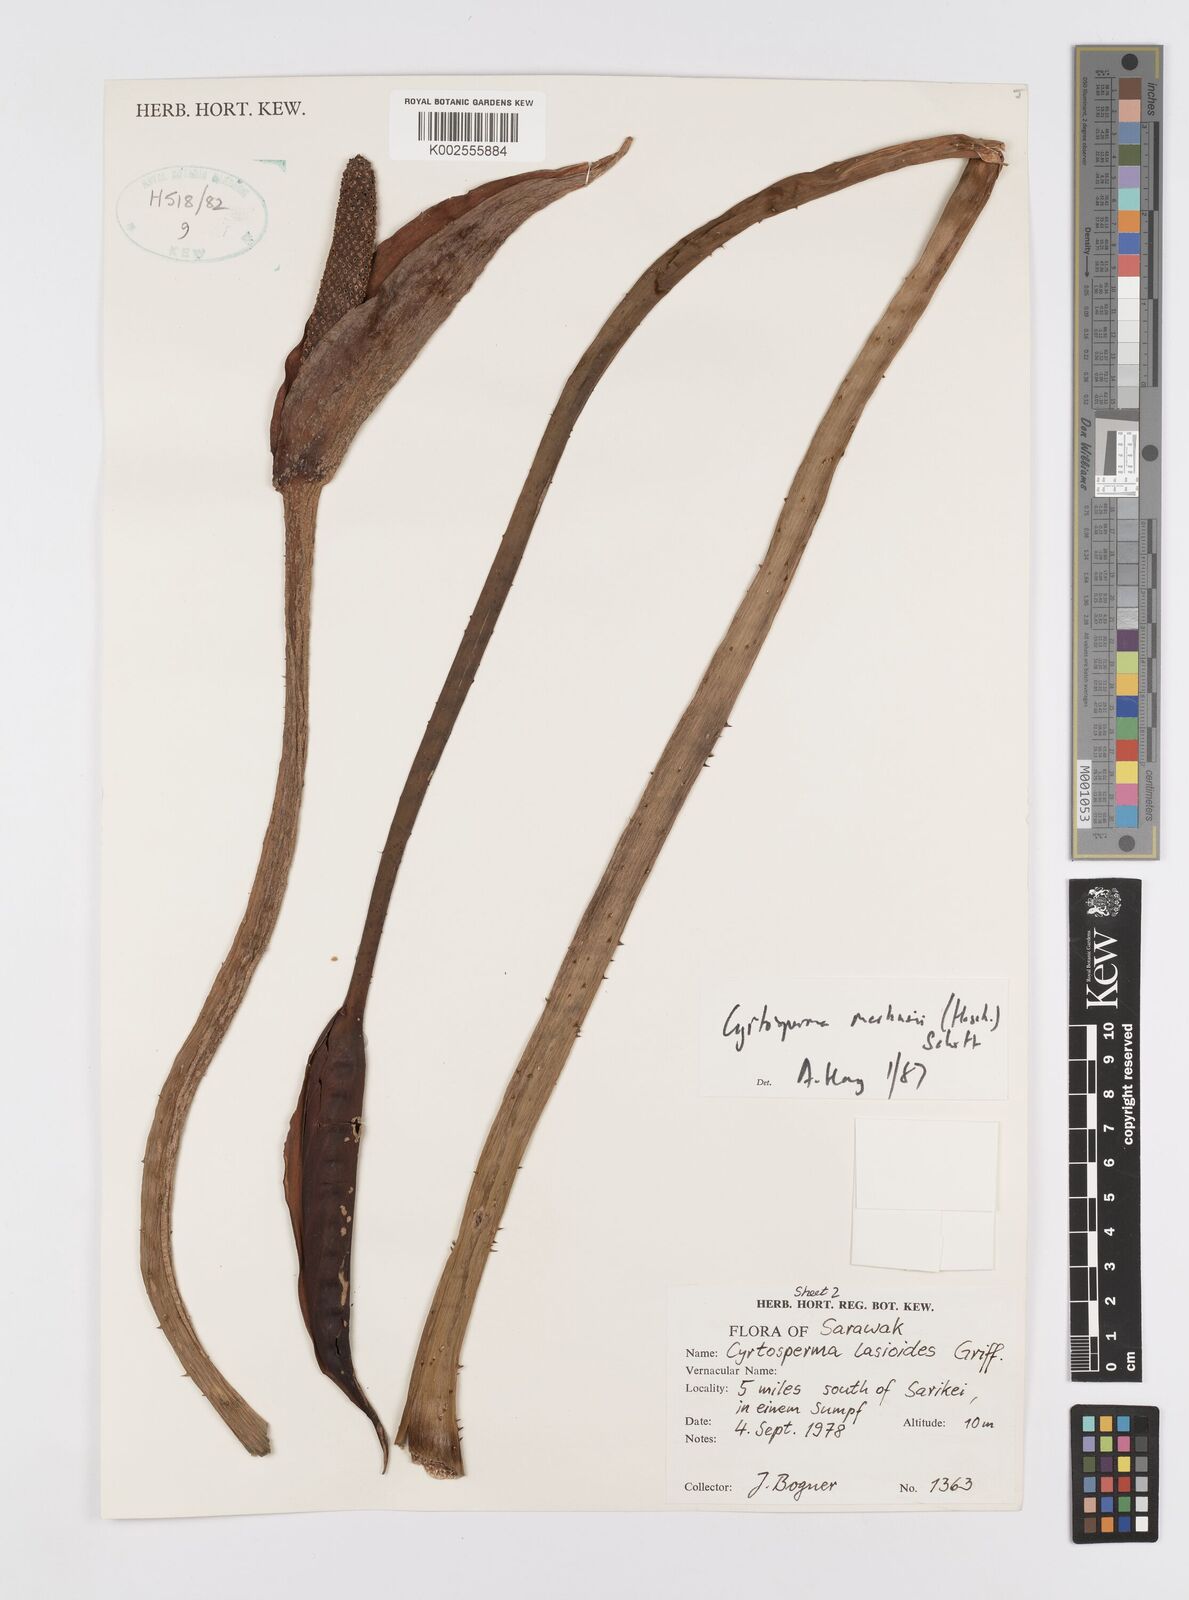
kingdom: Plantae
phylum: Tracheophyta
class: Liliopsida
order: Alismatales
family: Araceae
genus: Cyrtosperma
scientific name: Cyrtosperma merkusii
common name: Giant swamp-taro
